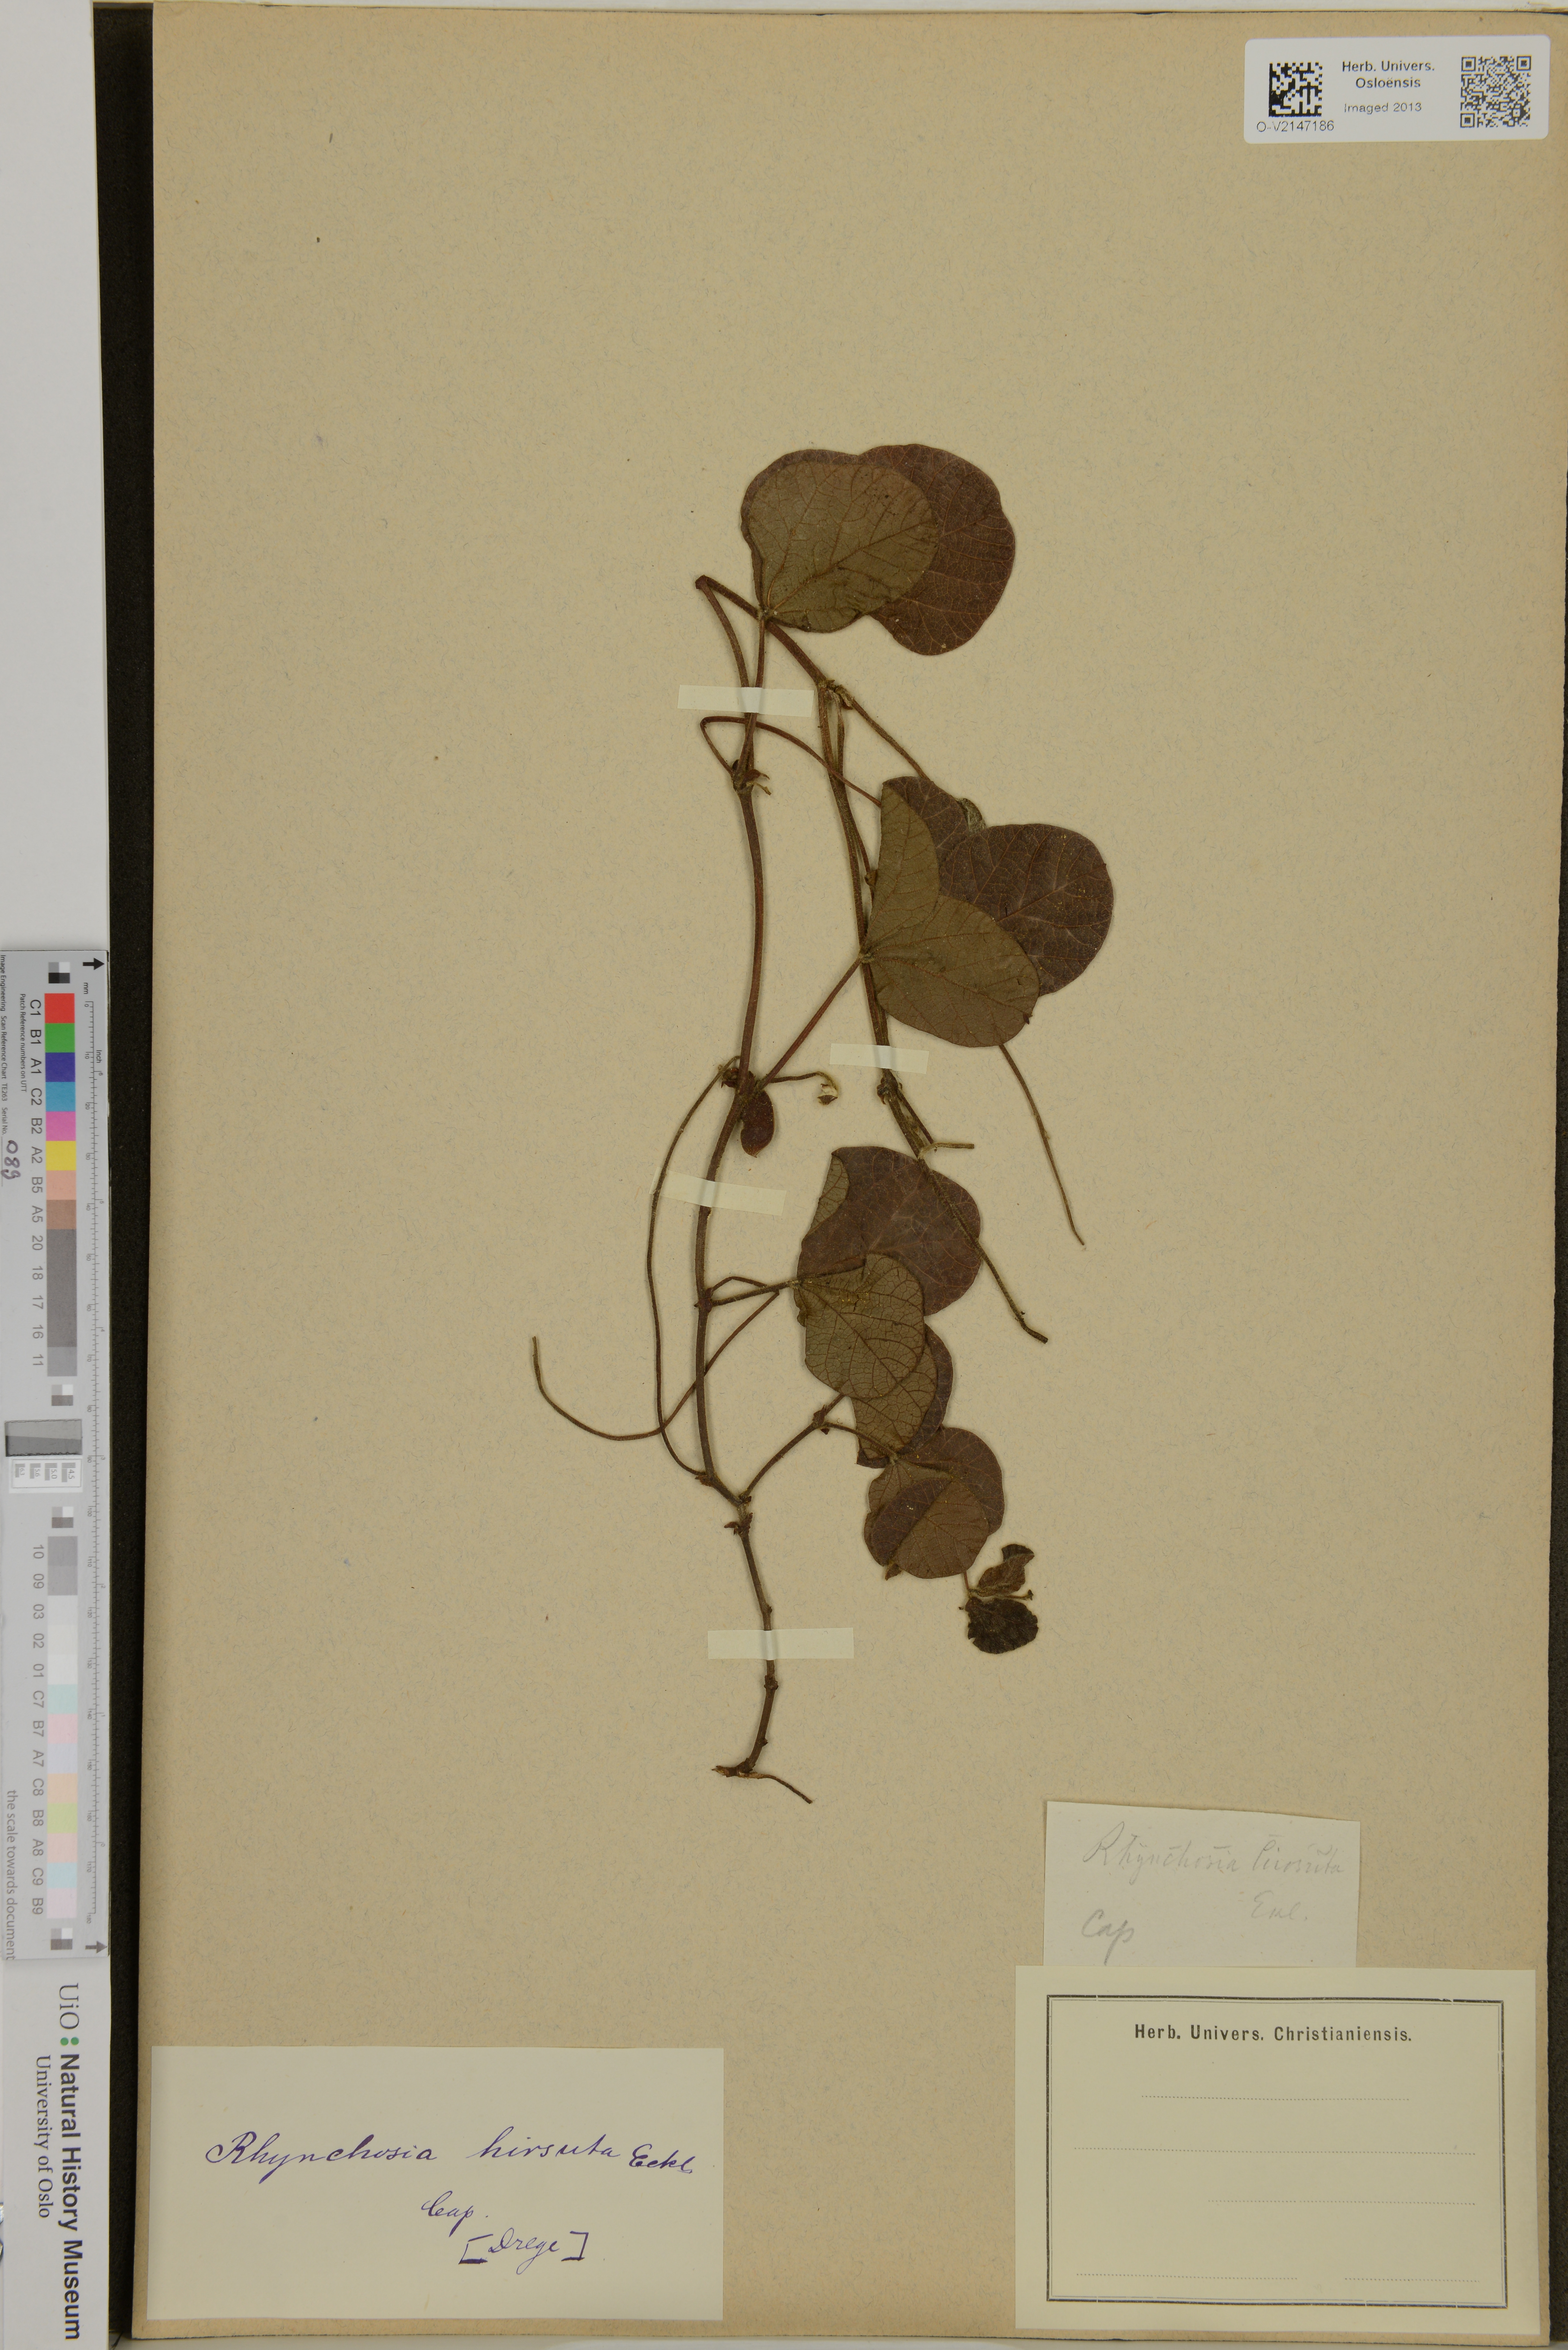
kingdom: Plantae
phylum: Tracheophyta
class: Magnoliopsida
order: Fabales
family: Fabaceae
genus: Rhynchosia
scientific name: Rhynchosia hirsuta
